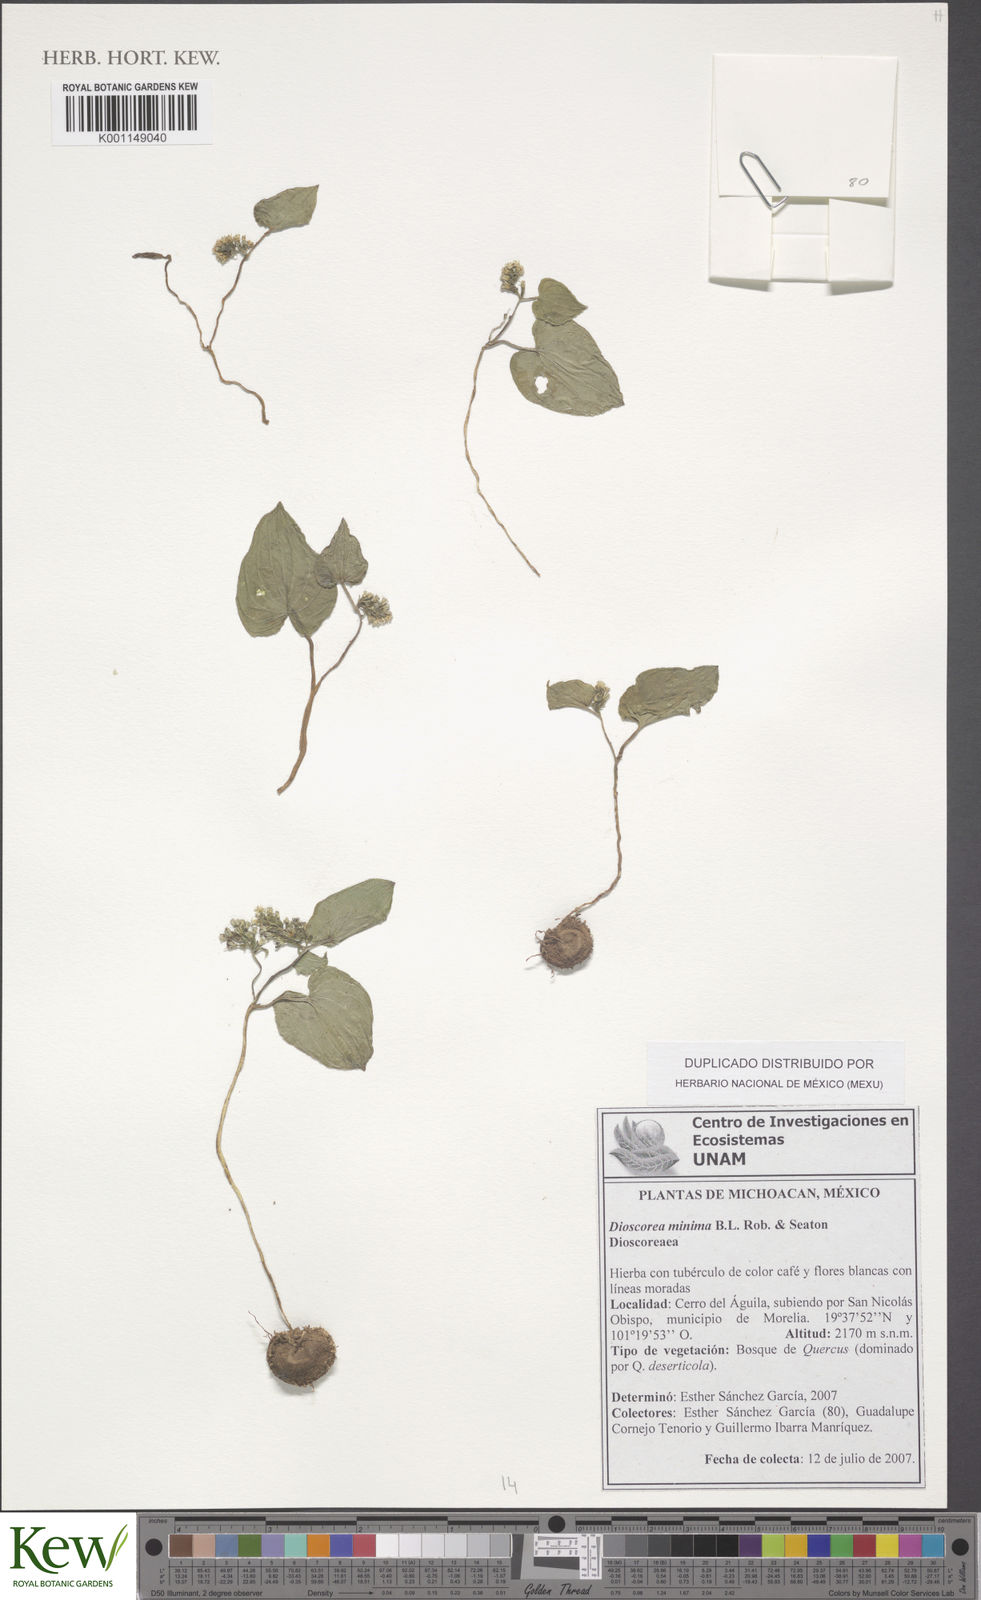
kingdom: Plantae
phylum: Tracheophyta
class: Liliopsida
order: Dioscoreales
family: Dioscoreaceae
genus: Dioscorea
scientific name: Dioscorea minima
